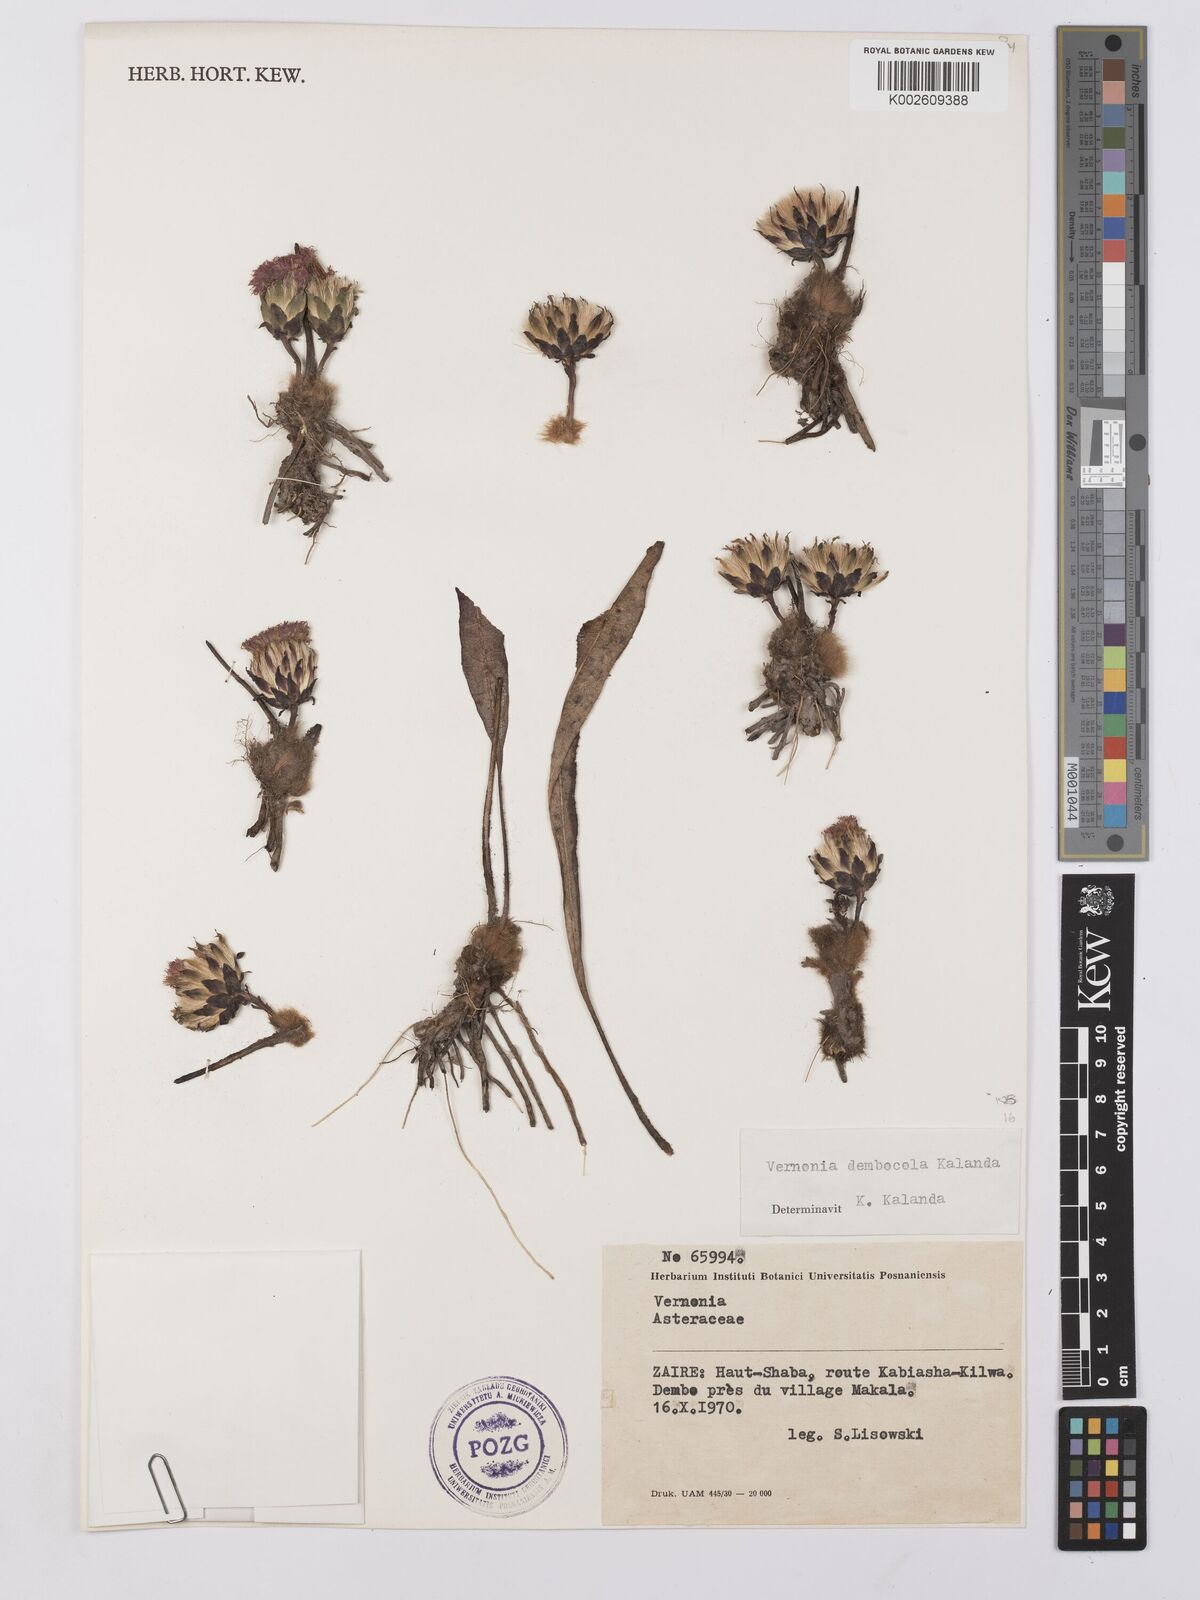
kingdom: Plantae
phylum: Tracheophyta
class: Magnoliopsida
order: Asterales
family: Asteraceae
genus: Vernonia
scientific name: Vernonia dembocola
